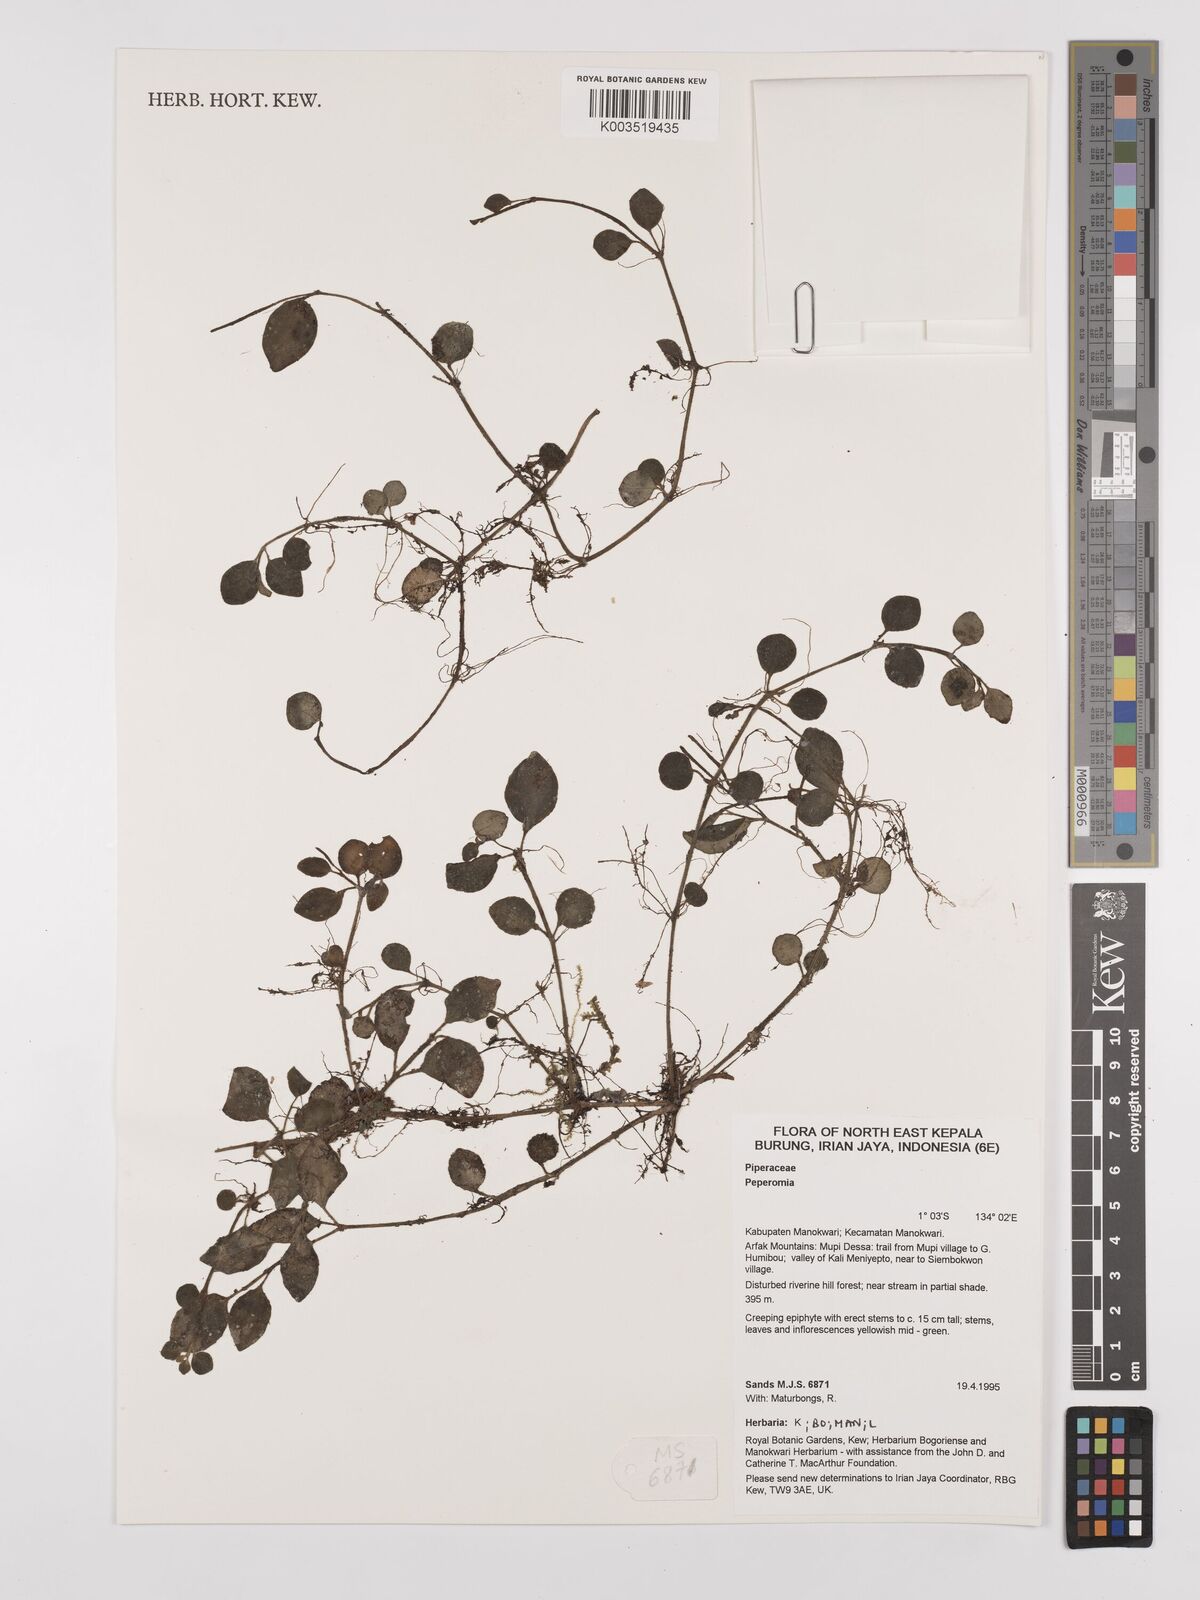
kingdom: Plantae
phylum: Tracheophyta
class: Magnoliopsida
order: Piperales
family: Piperaceae
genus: Peperomia
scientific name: Peperomia
